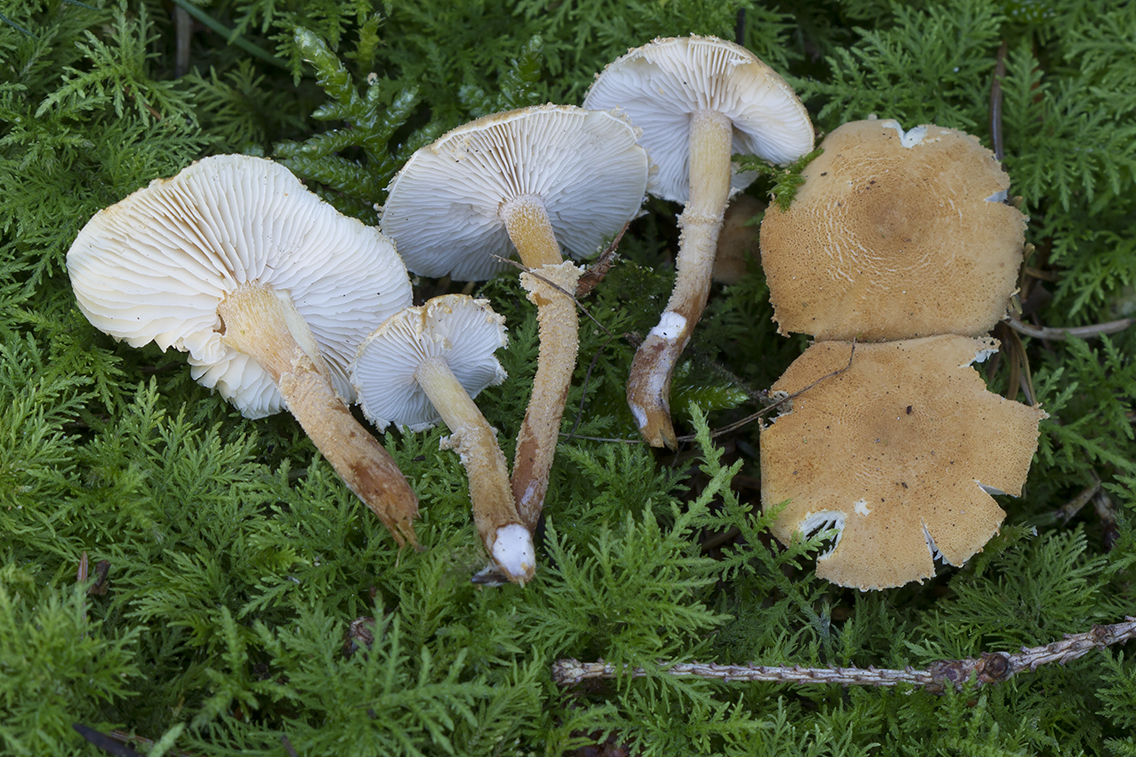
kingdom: Fungi
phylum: Basidiomycota
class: Agaricomycetes
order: Agaricales
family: Tricholomataceae
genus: Cystoderma
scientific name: Cystoderma amianthinum
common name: okkergul grynhat
